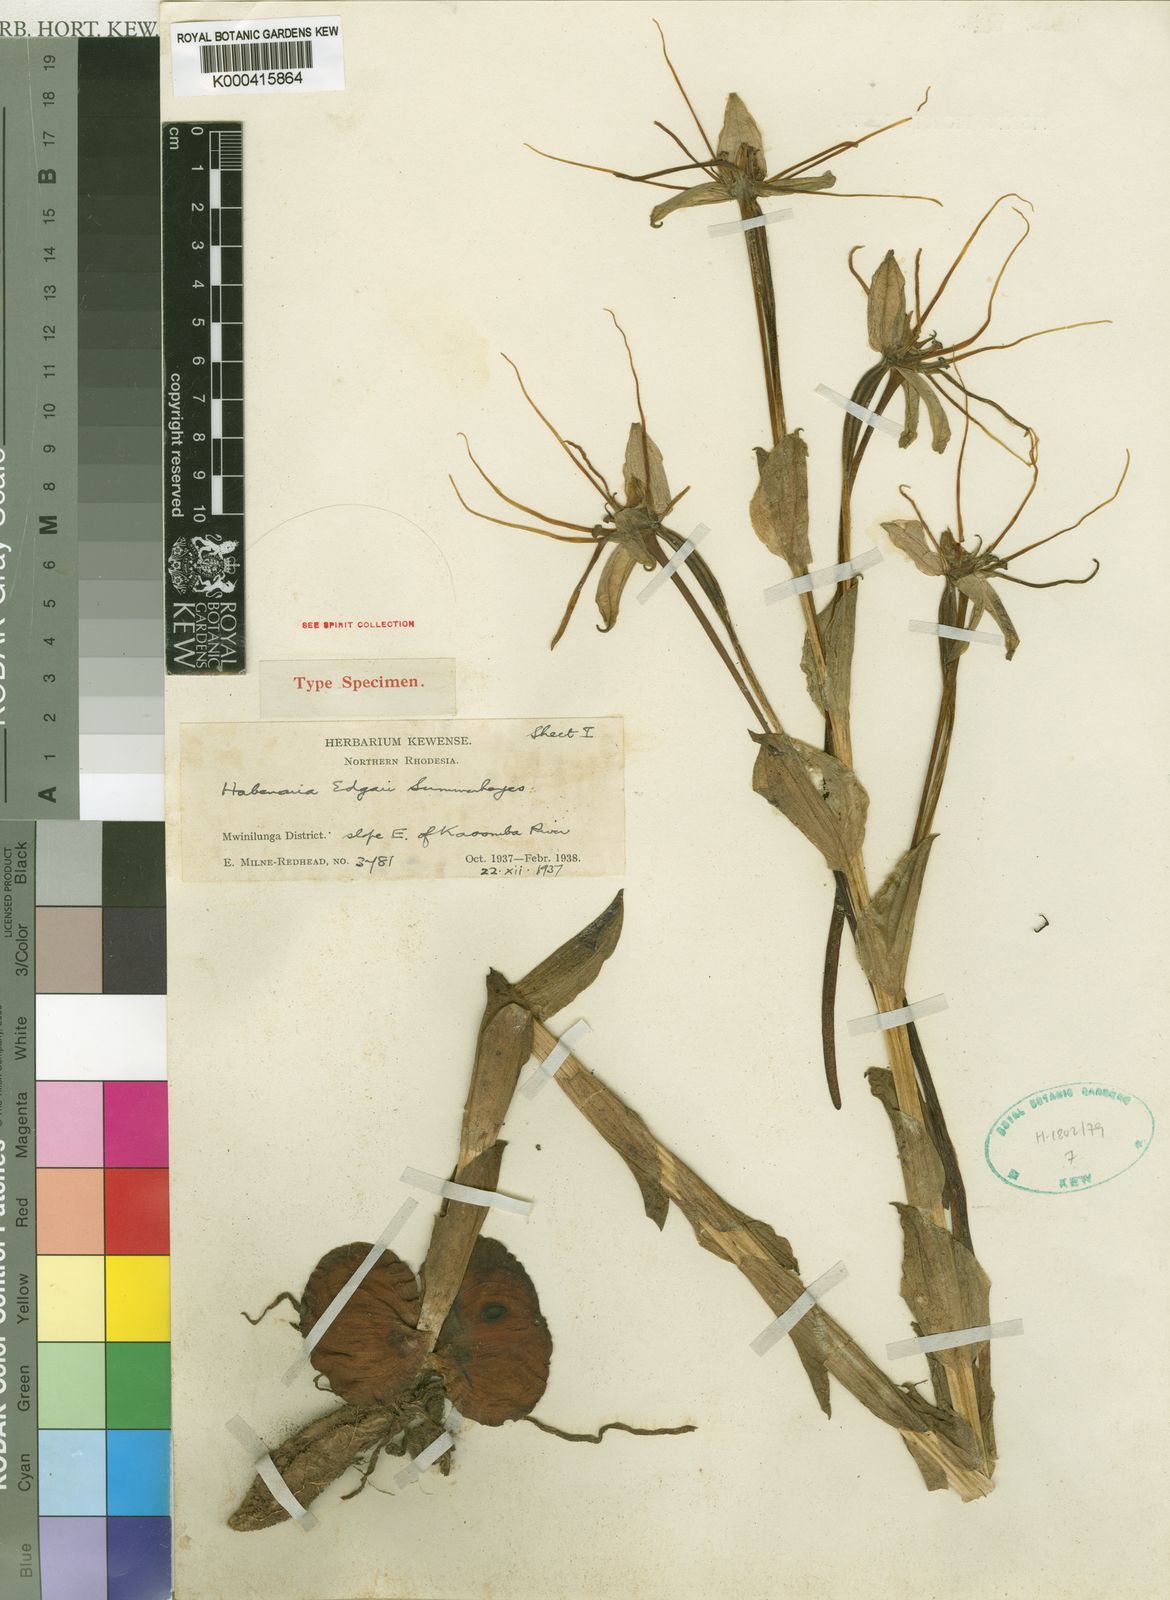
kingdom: Plantae
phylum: Tracheophyta
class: Liliopsida
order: Asparagales
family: Orchidaceae
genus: Habenaria
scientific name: Habenaria edgarii
